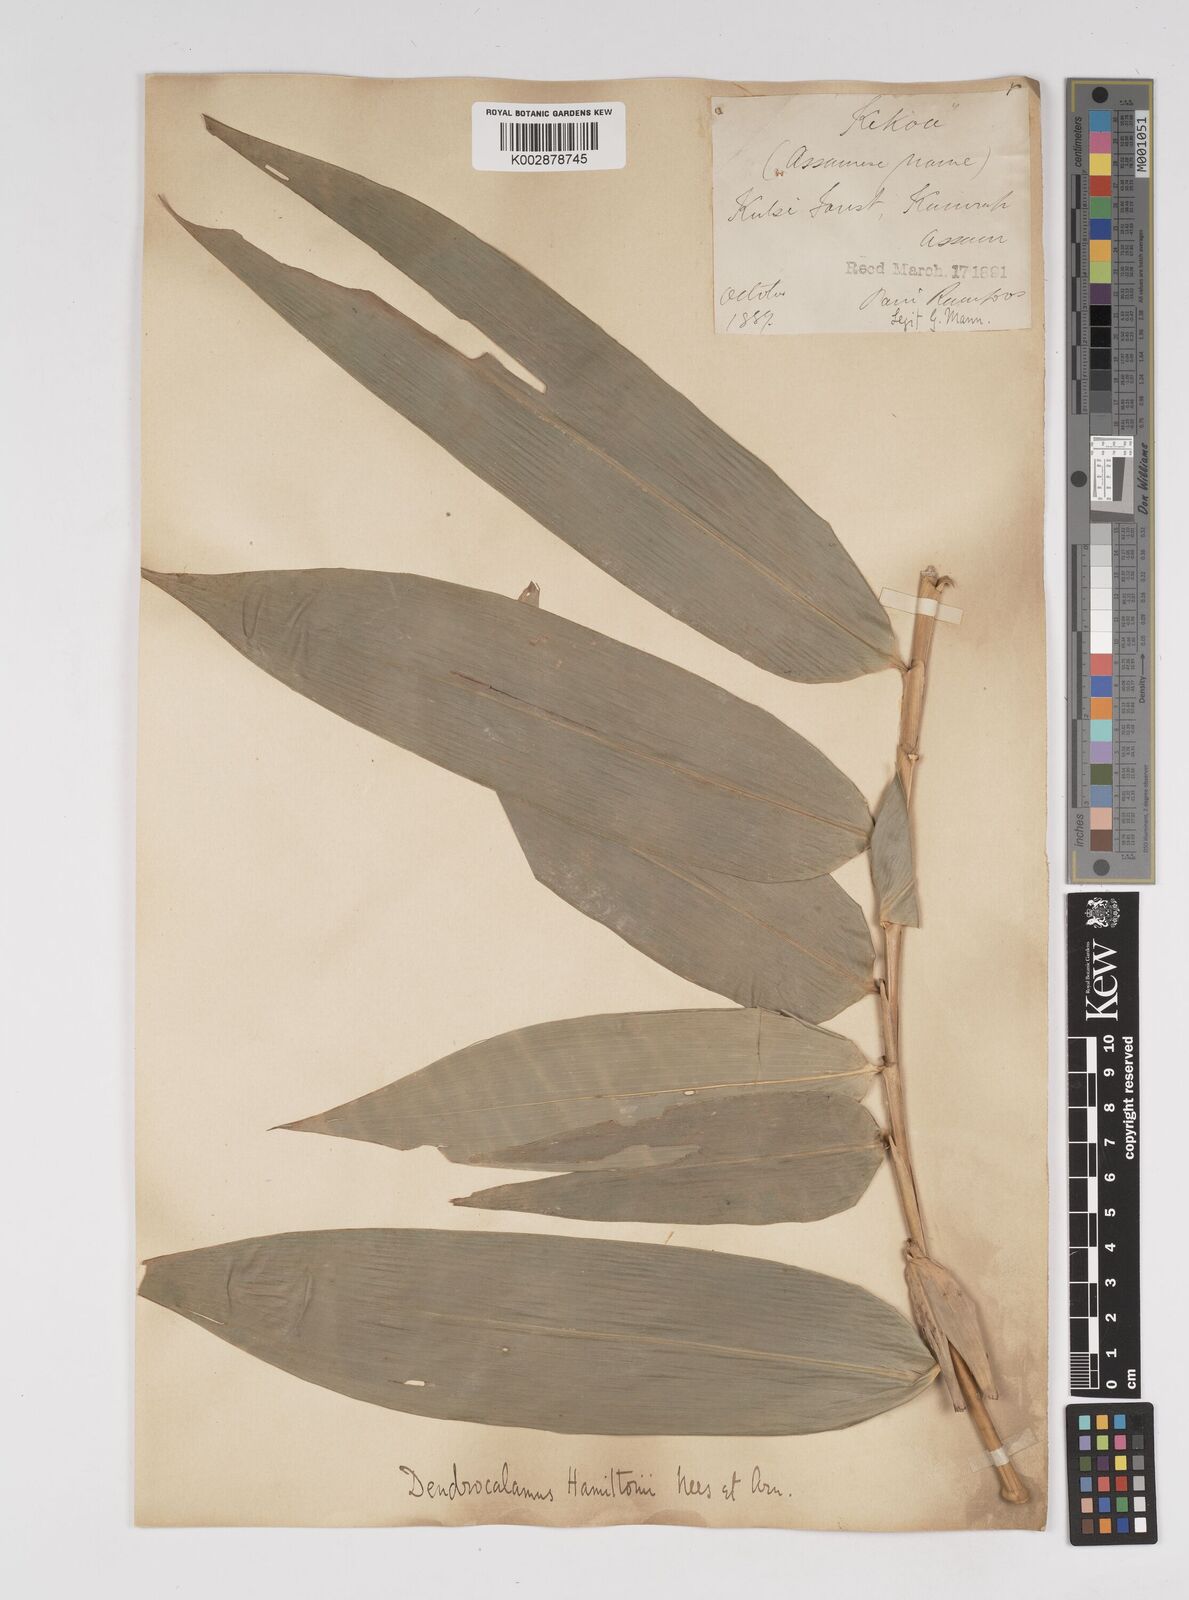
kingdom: Plantae
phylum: Tracheophyta
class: Liliopsida
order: Poales
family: Poaceae
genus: Dendrocalamus
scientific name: Dendrocalamus hamiltonii
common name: Tama bamboo
